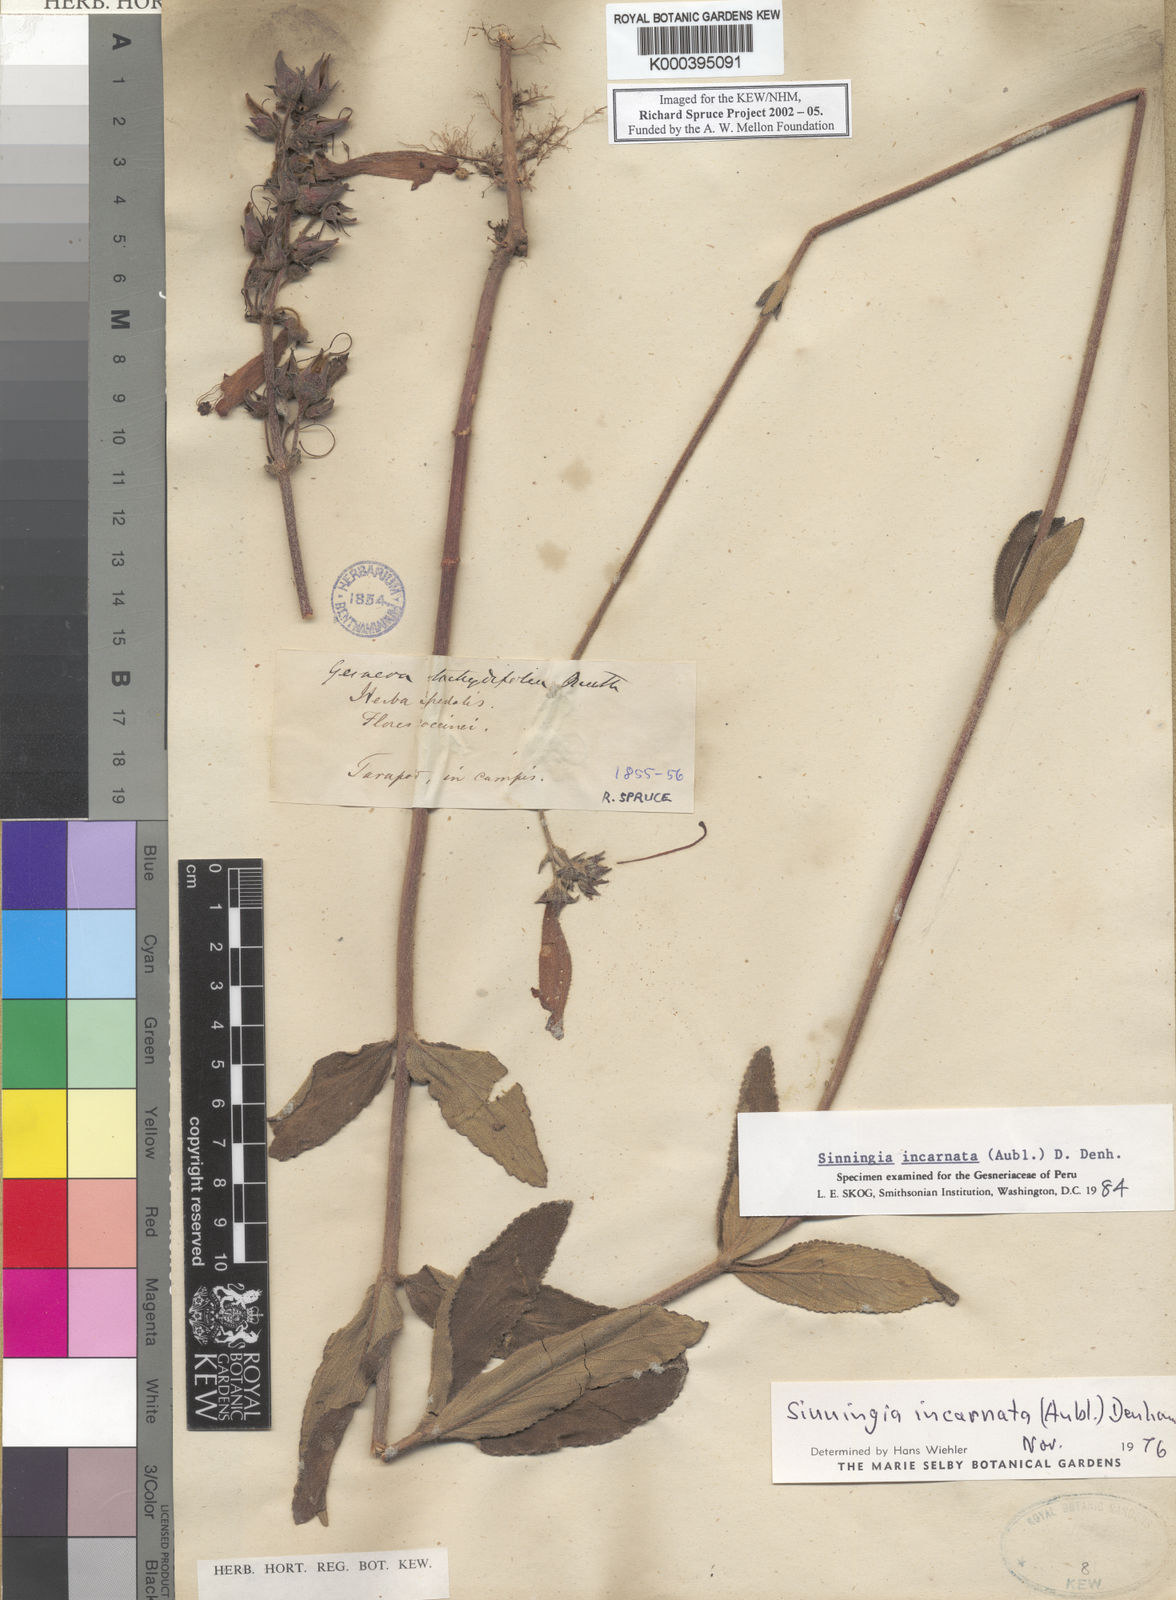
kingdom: Plantae
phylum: Tracheophyta
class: Magnoliopsida
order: Lamiales
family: Gesneriaceae
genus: Sinningia
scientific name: Sinningia incarnata
